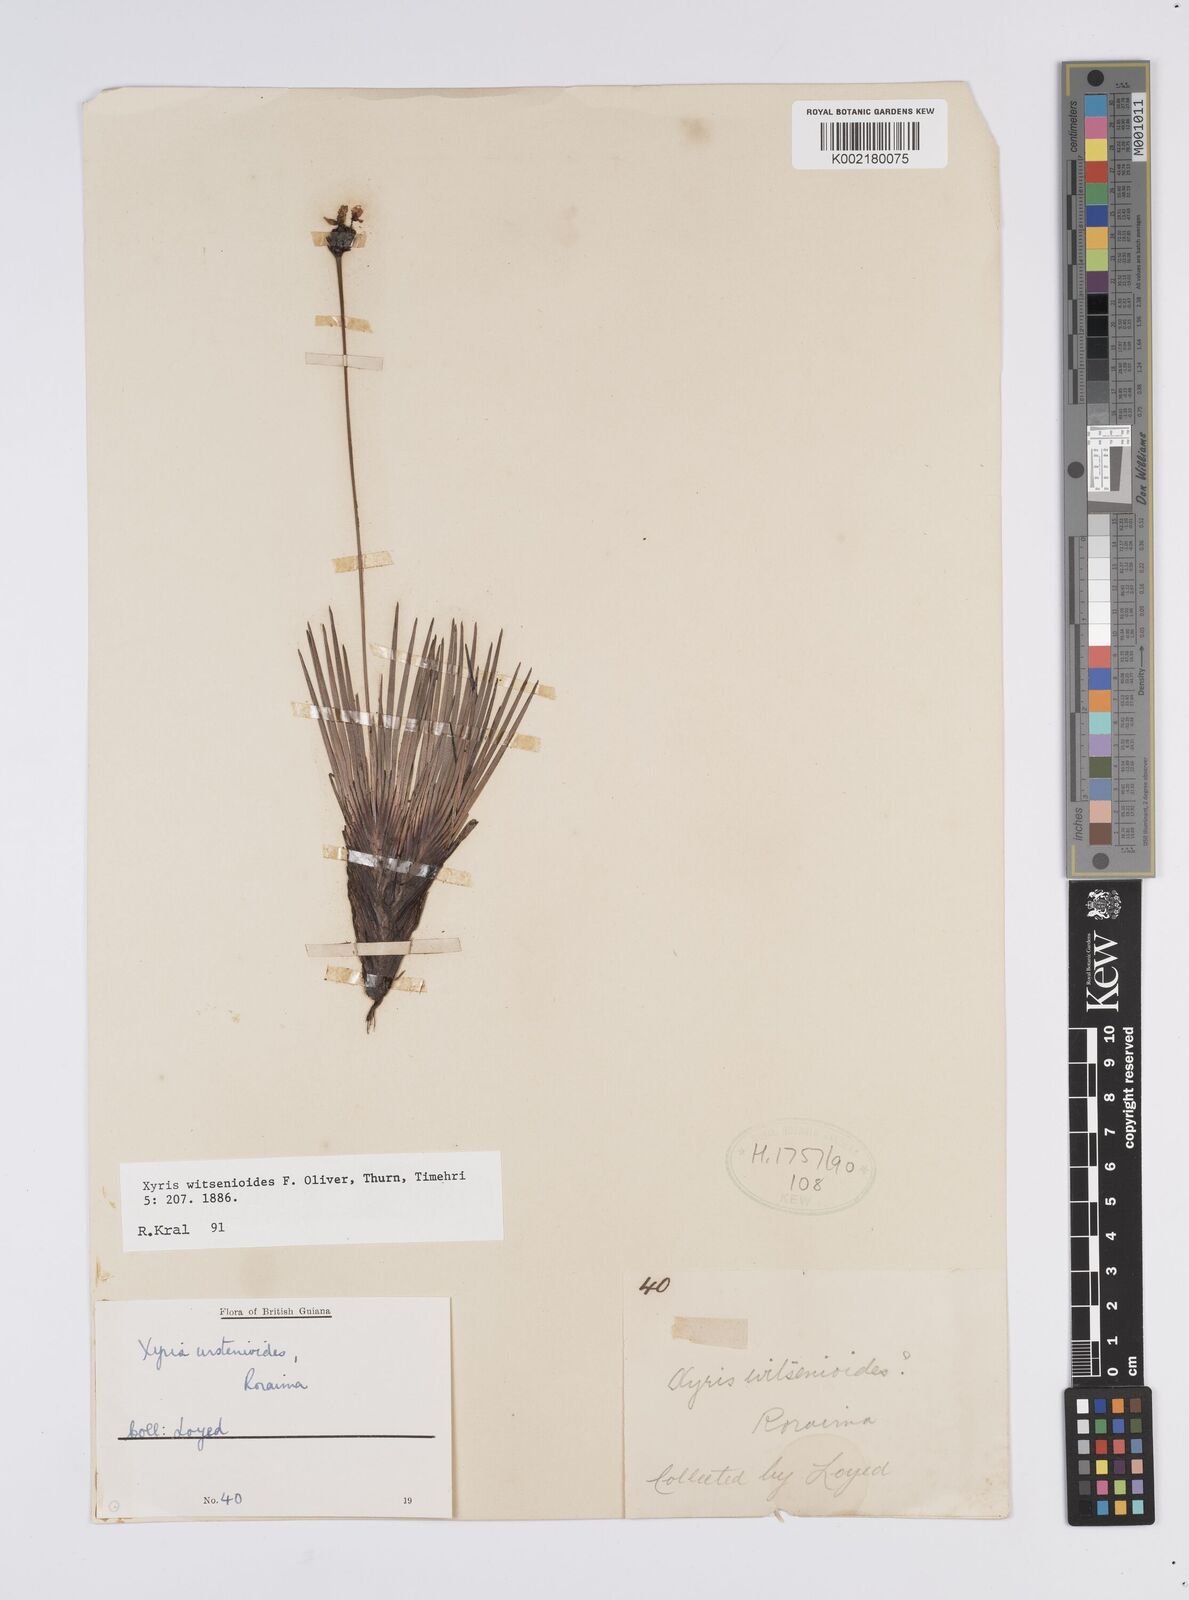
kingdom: Plantae
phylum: Tracheophyta
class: Liliopsida
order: Poales
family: Xyridaceae
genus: Xyris
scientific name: Xyris witsenioides
